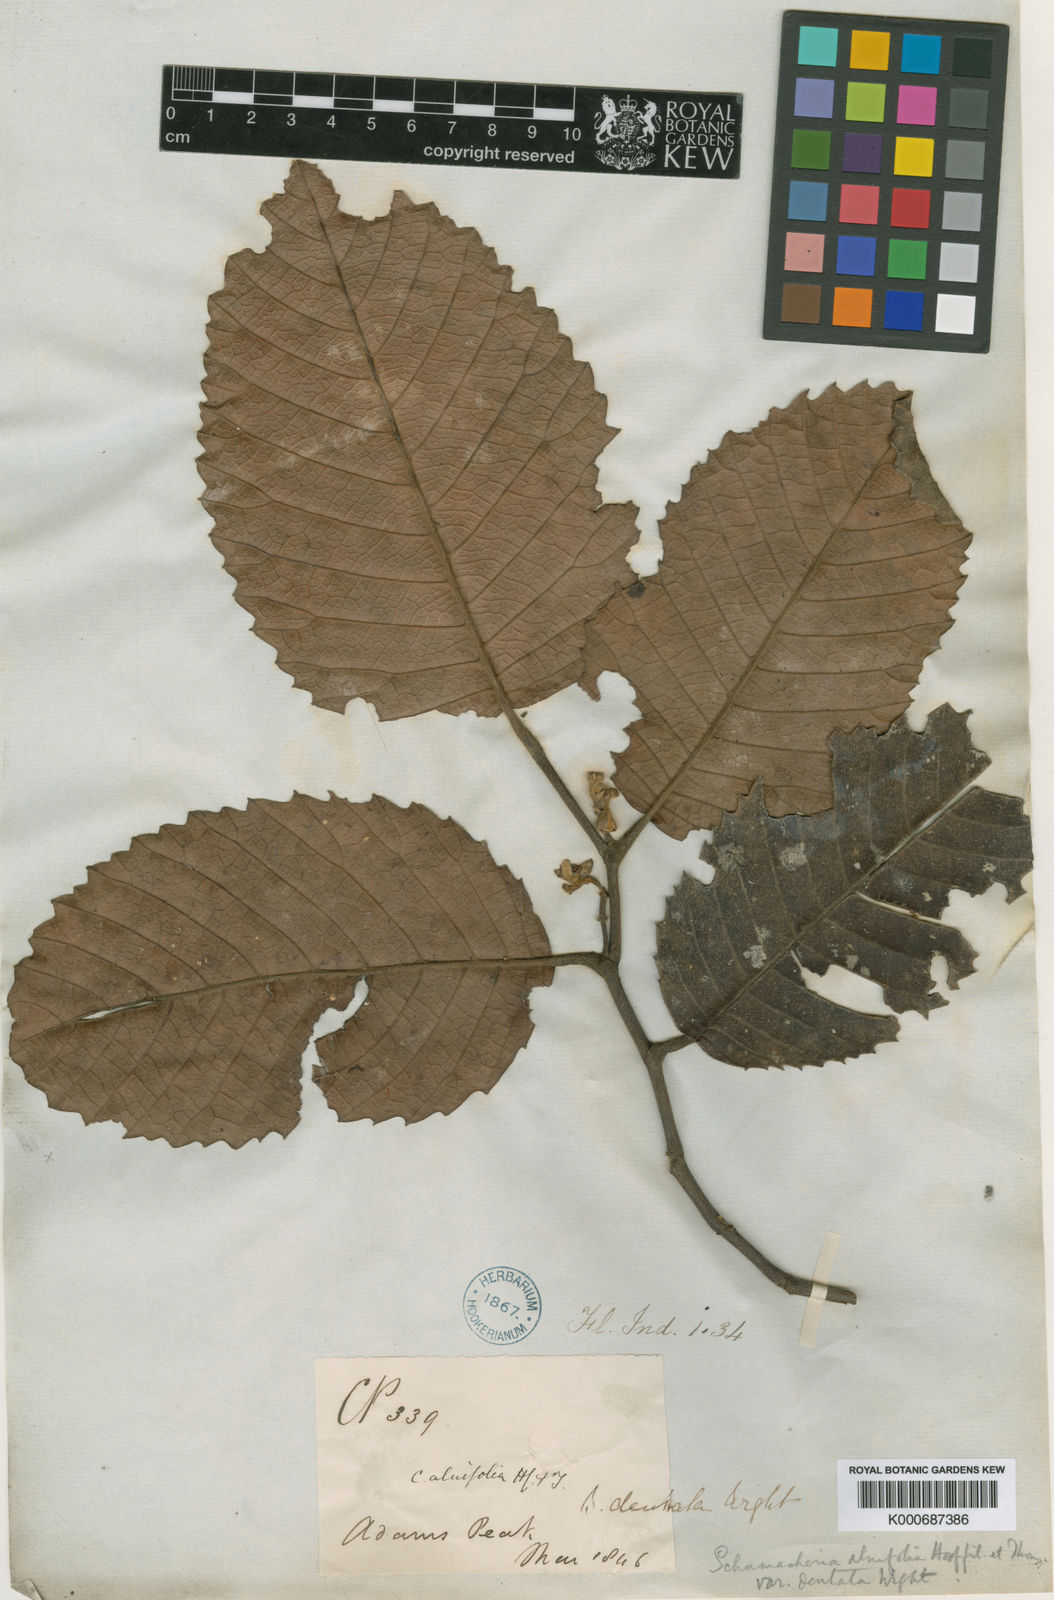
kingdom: Plantae
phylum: Tracheophyta
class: Magnoliopsida
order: Dilleniales
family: Dilleniaceae
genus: Schumacheria
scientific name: Schumacheria alnifolia
